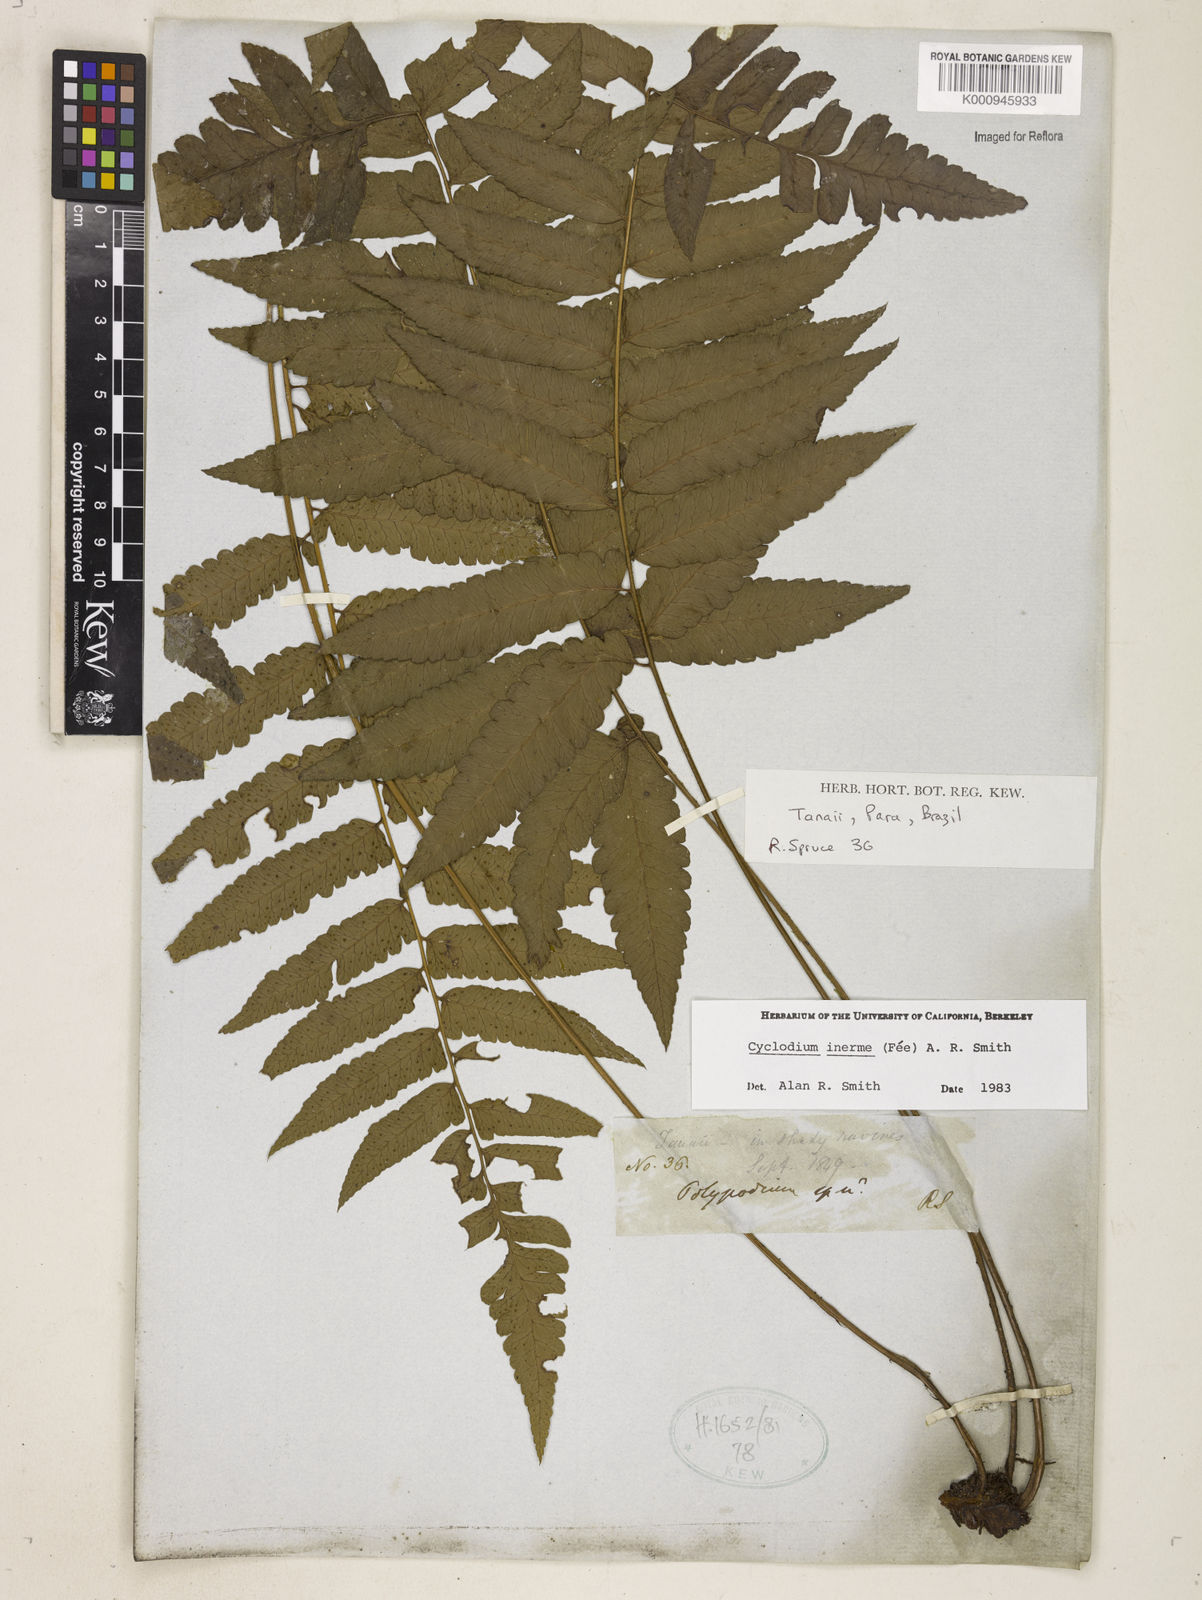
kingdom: Plantae
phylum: Tracheophyta
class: Polypodiopsida
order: Polypodiales
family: Dryopteridaceae
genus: Cyclodium
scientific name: Cyclodium
